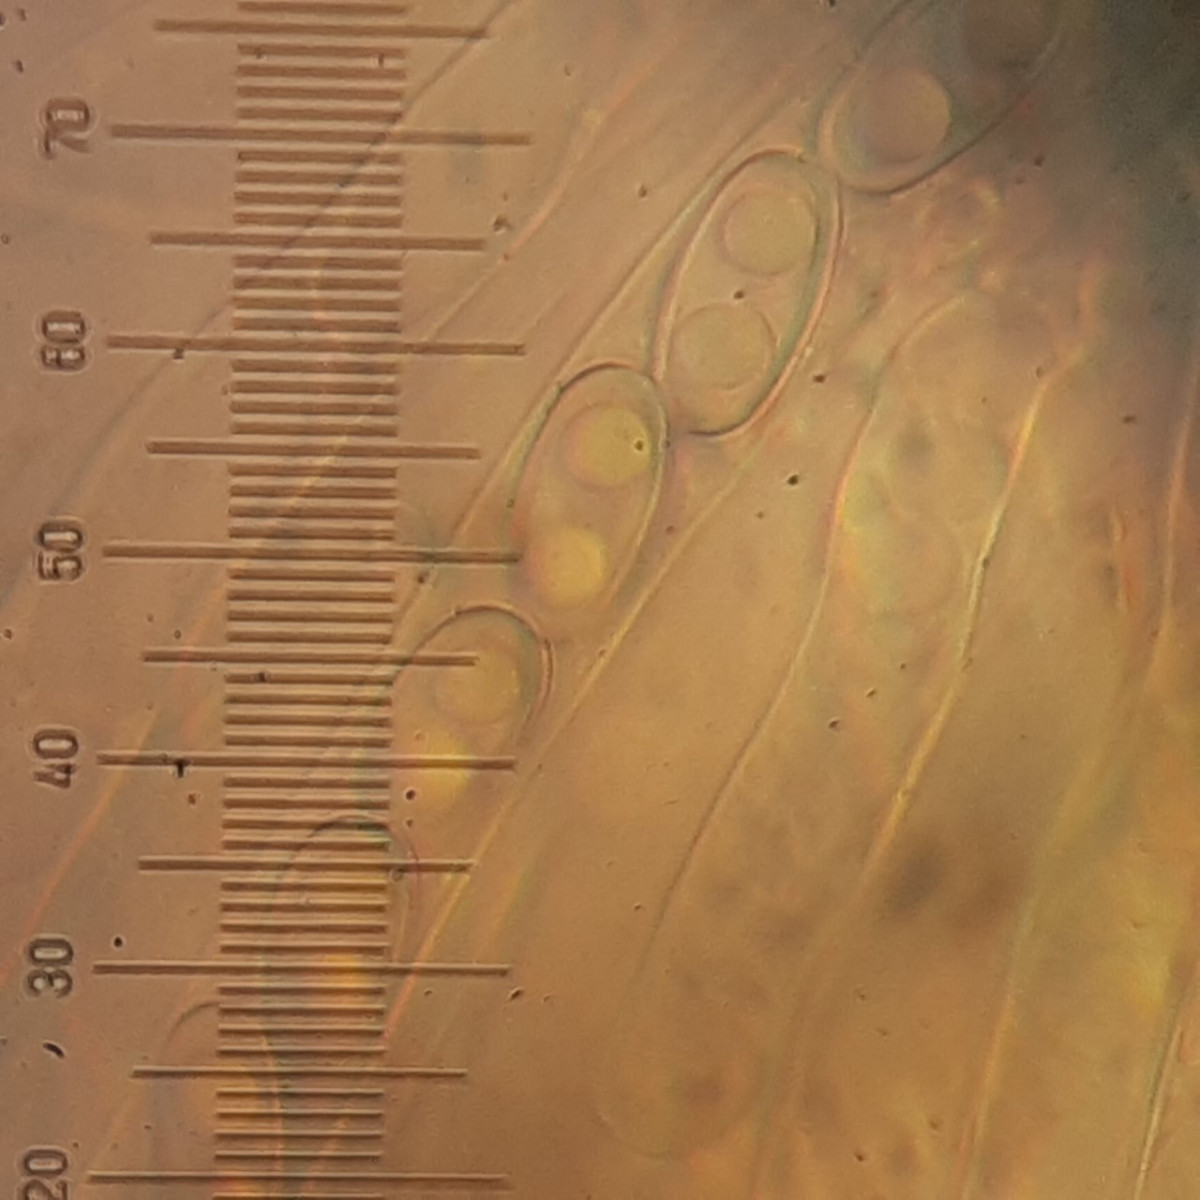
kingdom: Fungi
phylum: Ascomycota
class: Pezizomycetes
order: Pezizales
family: Otideaceae
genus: Otidea
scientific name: Otidea alutacea
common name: læder-ørebæger
